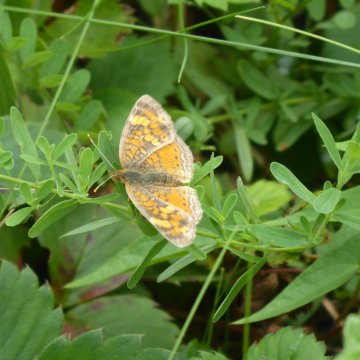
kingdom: Animalia
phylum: Arthropoda
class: Insecta
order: Lepidoptera
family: Nymphalidae
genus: Phyciodes
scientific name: Phyciodes
